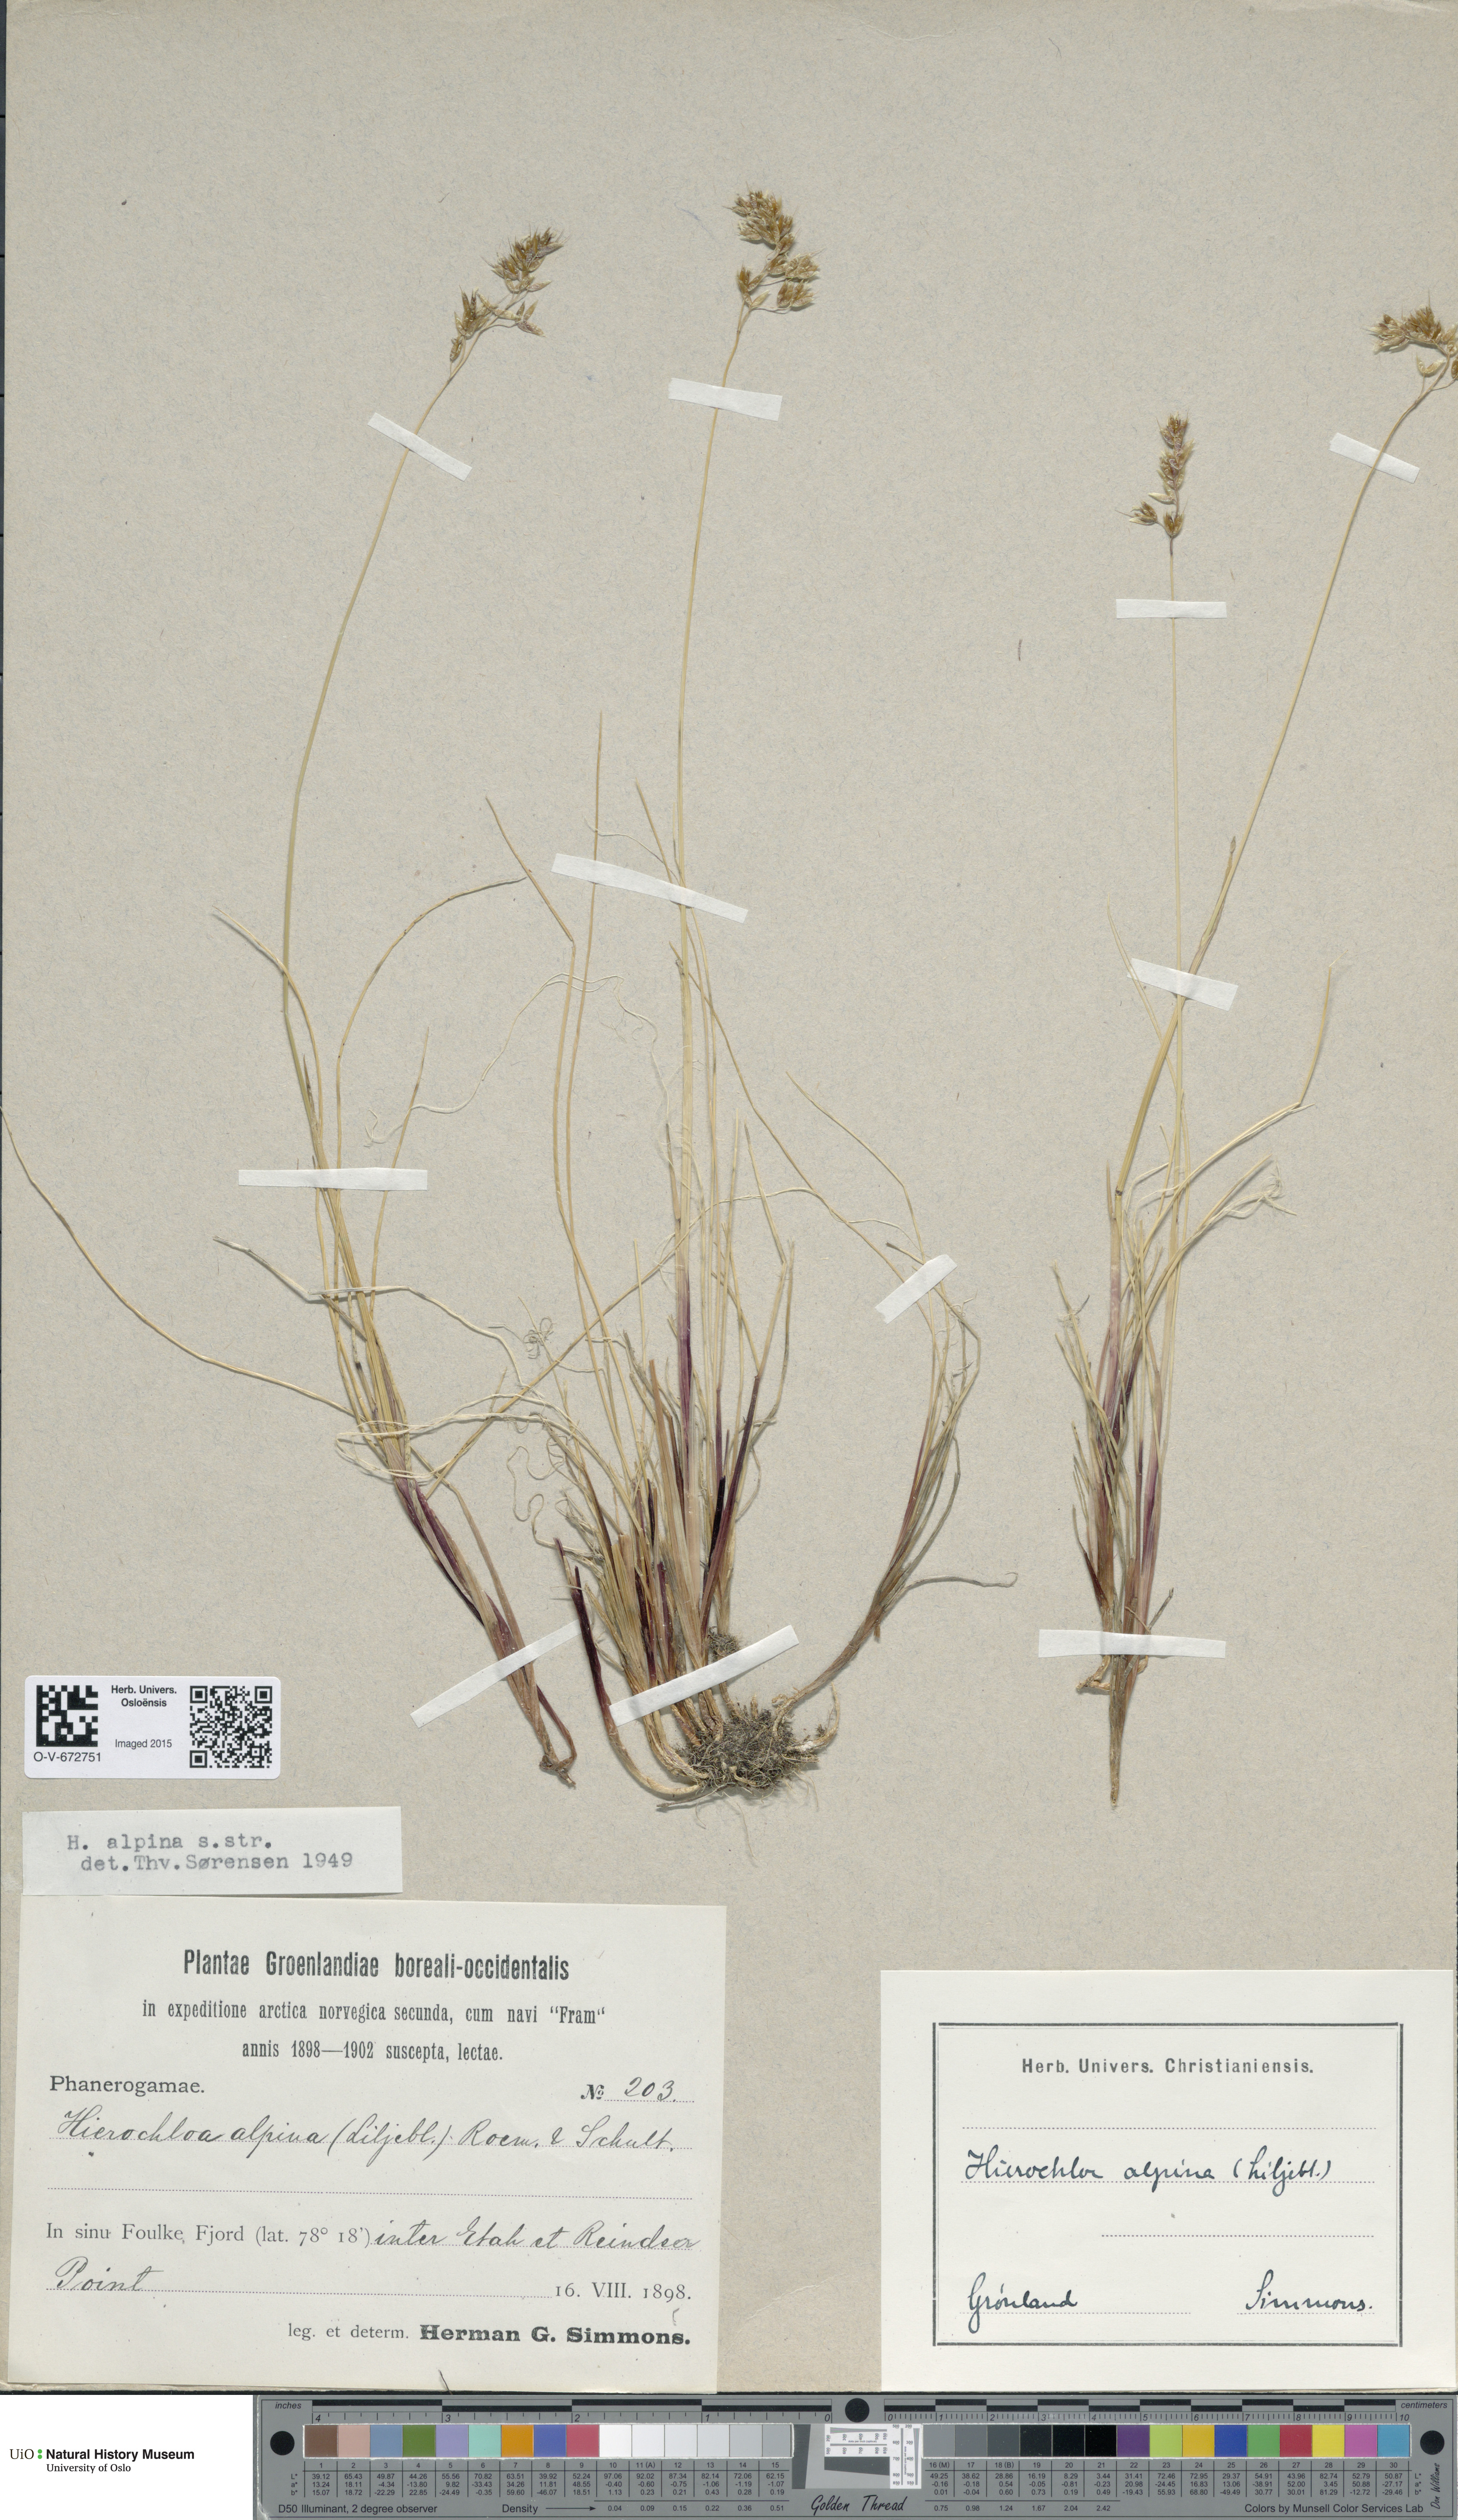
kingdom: Plantae
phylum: Tracheophyta
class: Liliopsida
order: Poales
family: Poaceae
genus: Anthoxanthum
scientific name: Anthoxanthum monticola
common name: Alpine sweetgrass
